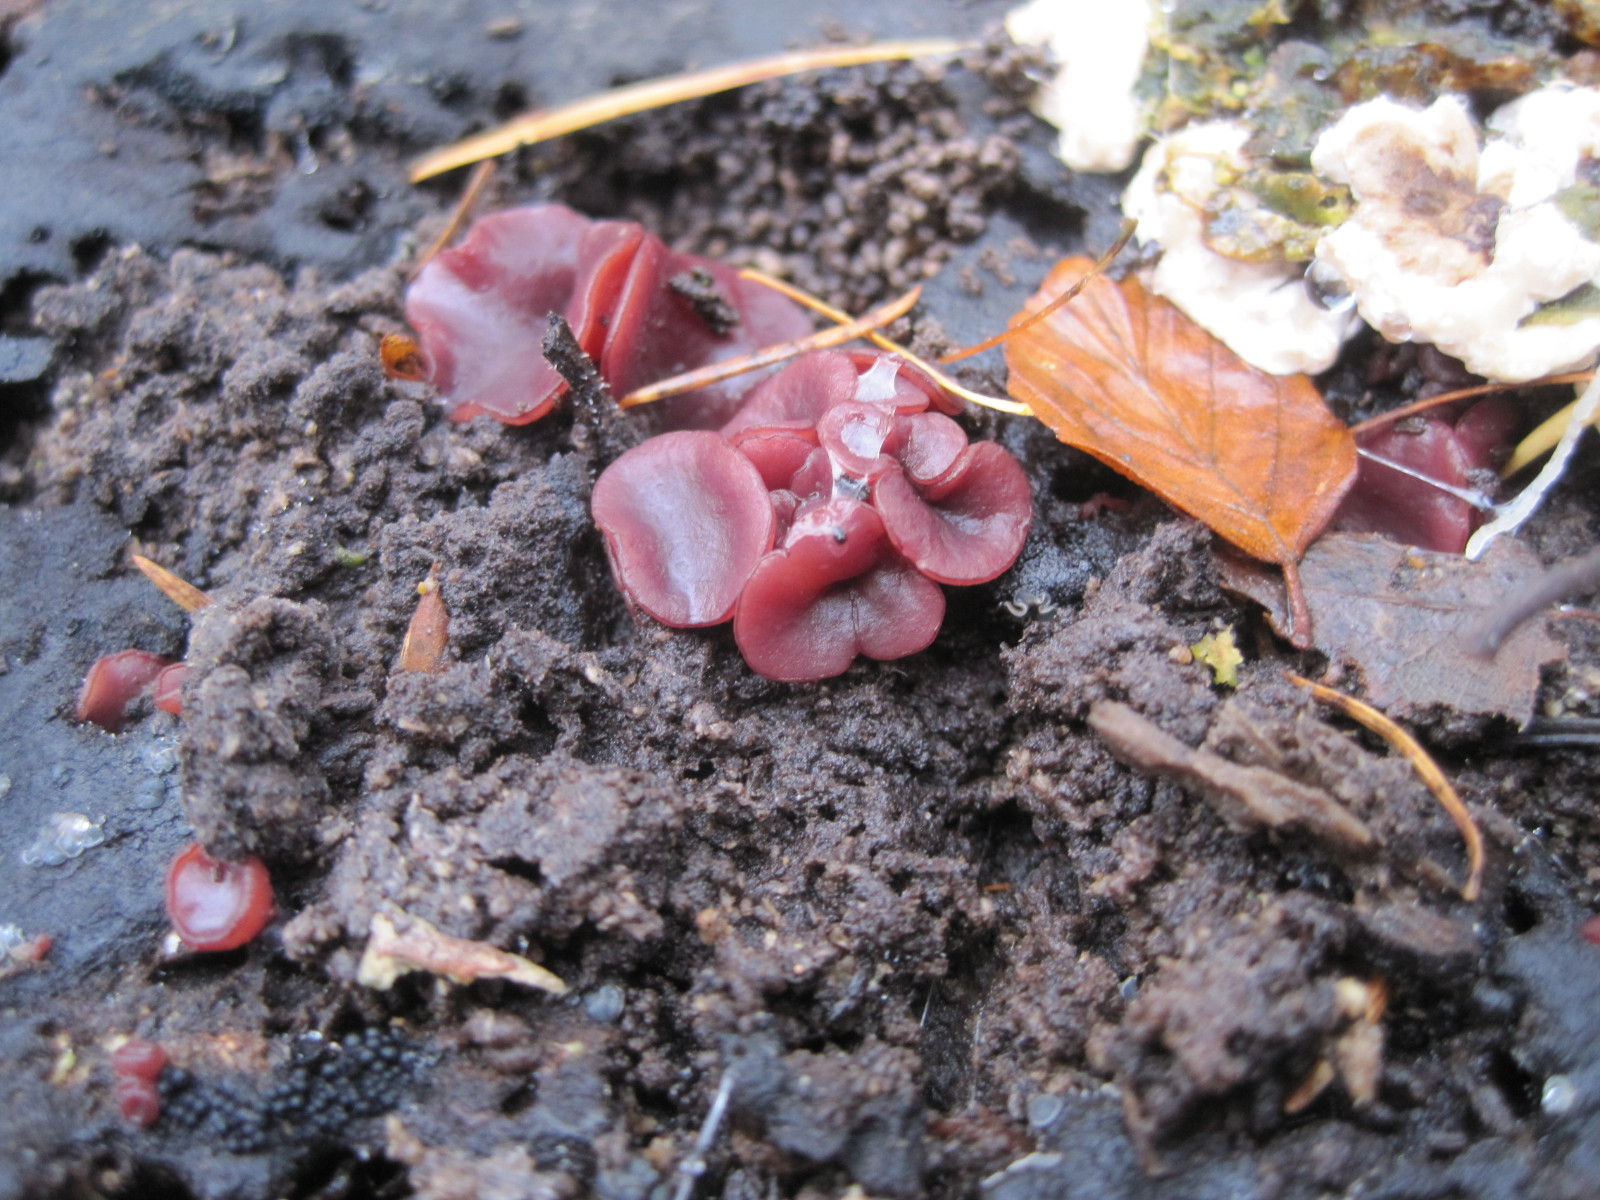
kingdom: Fungi
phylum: Ascomycota
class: Leotiomycetes
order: Helotiales
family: Gelatinodiscaceae
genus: Ascocoryne
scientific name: Ascocoryne sarcoides
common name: rødlilla sejskive
